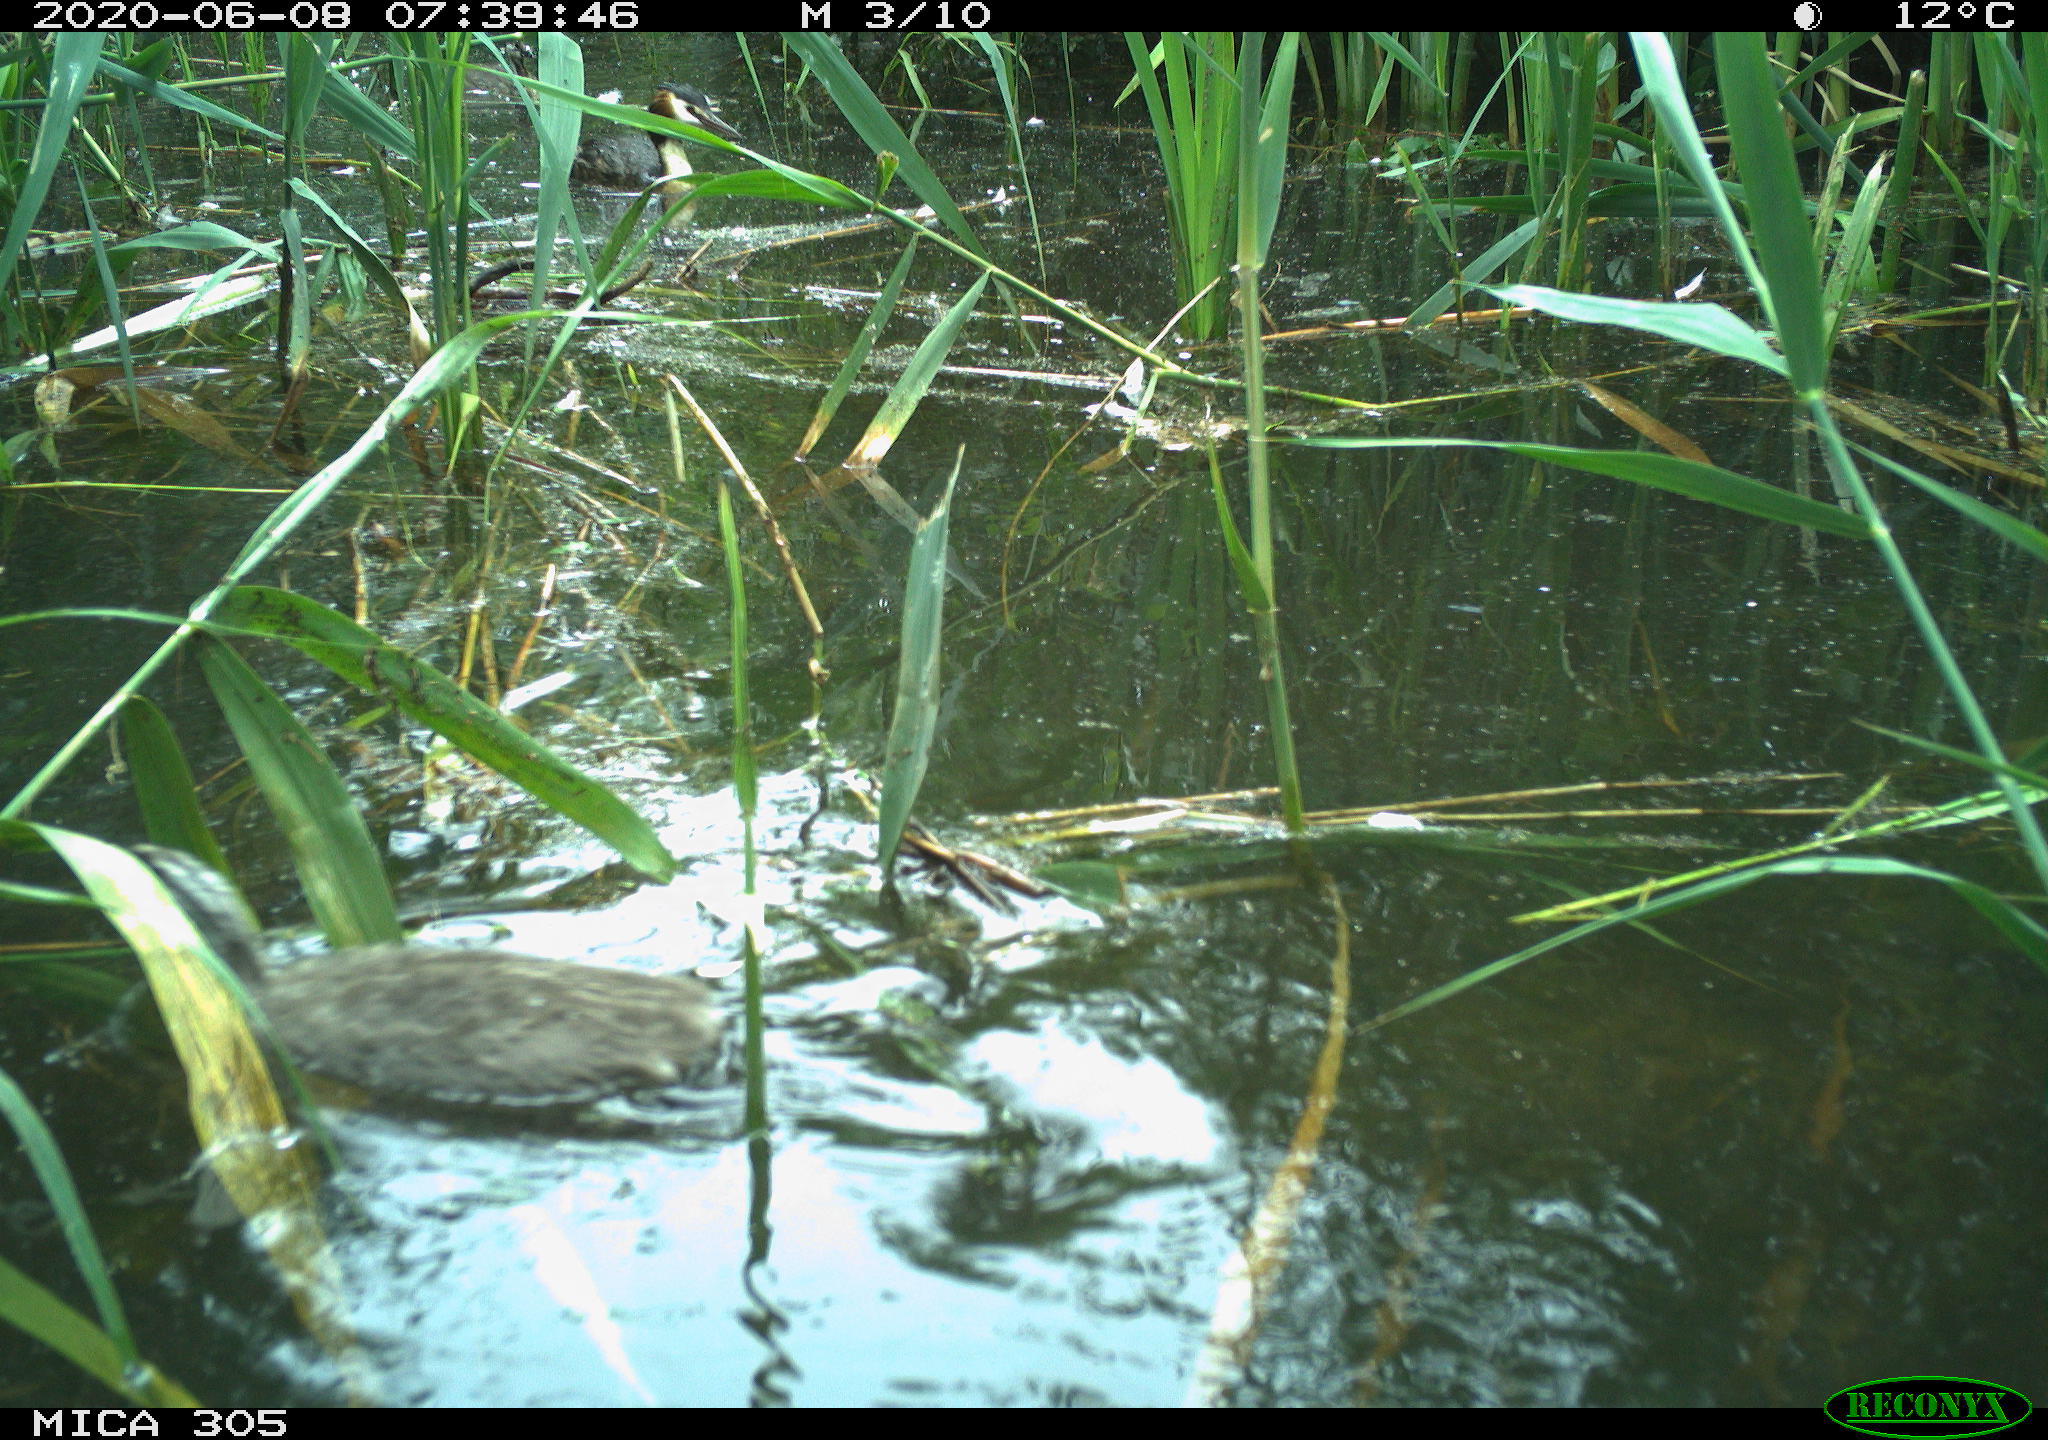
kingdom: Animalia
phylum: Chordata
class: Aves
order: Podicipediformes
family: Podicipedidae
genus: Podiceps
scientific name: Podiceps cristatus
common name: Great crested grebe
